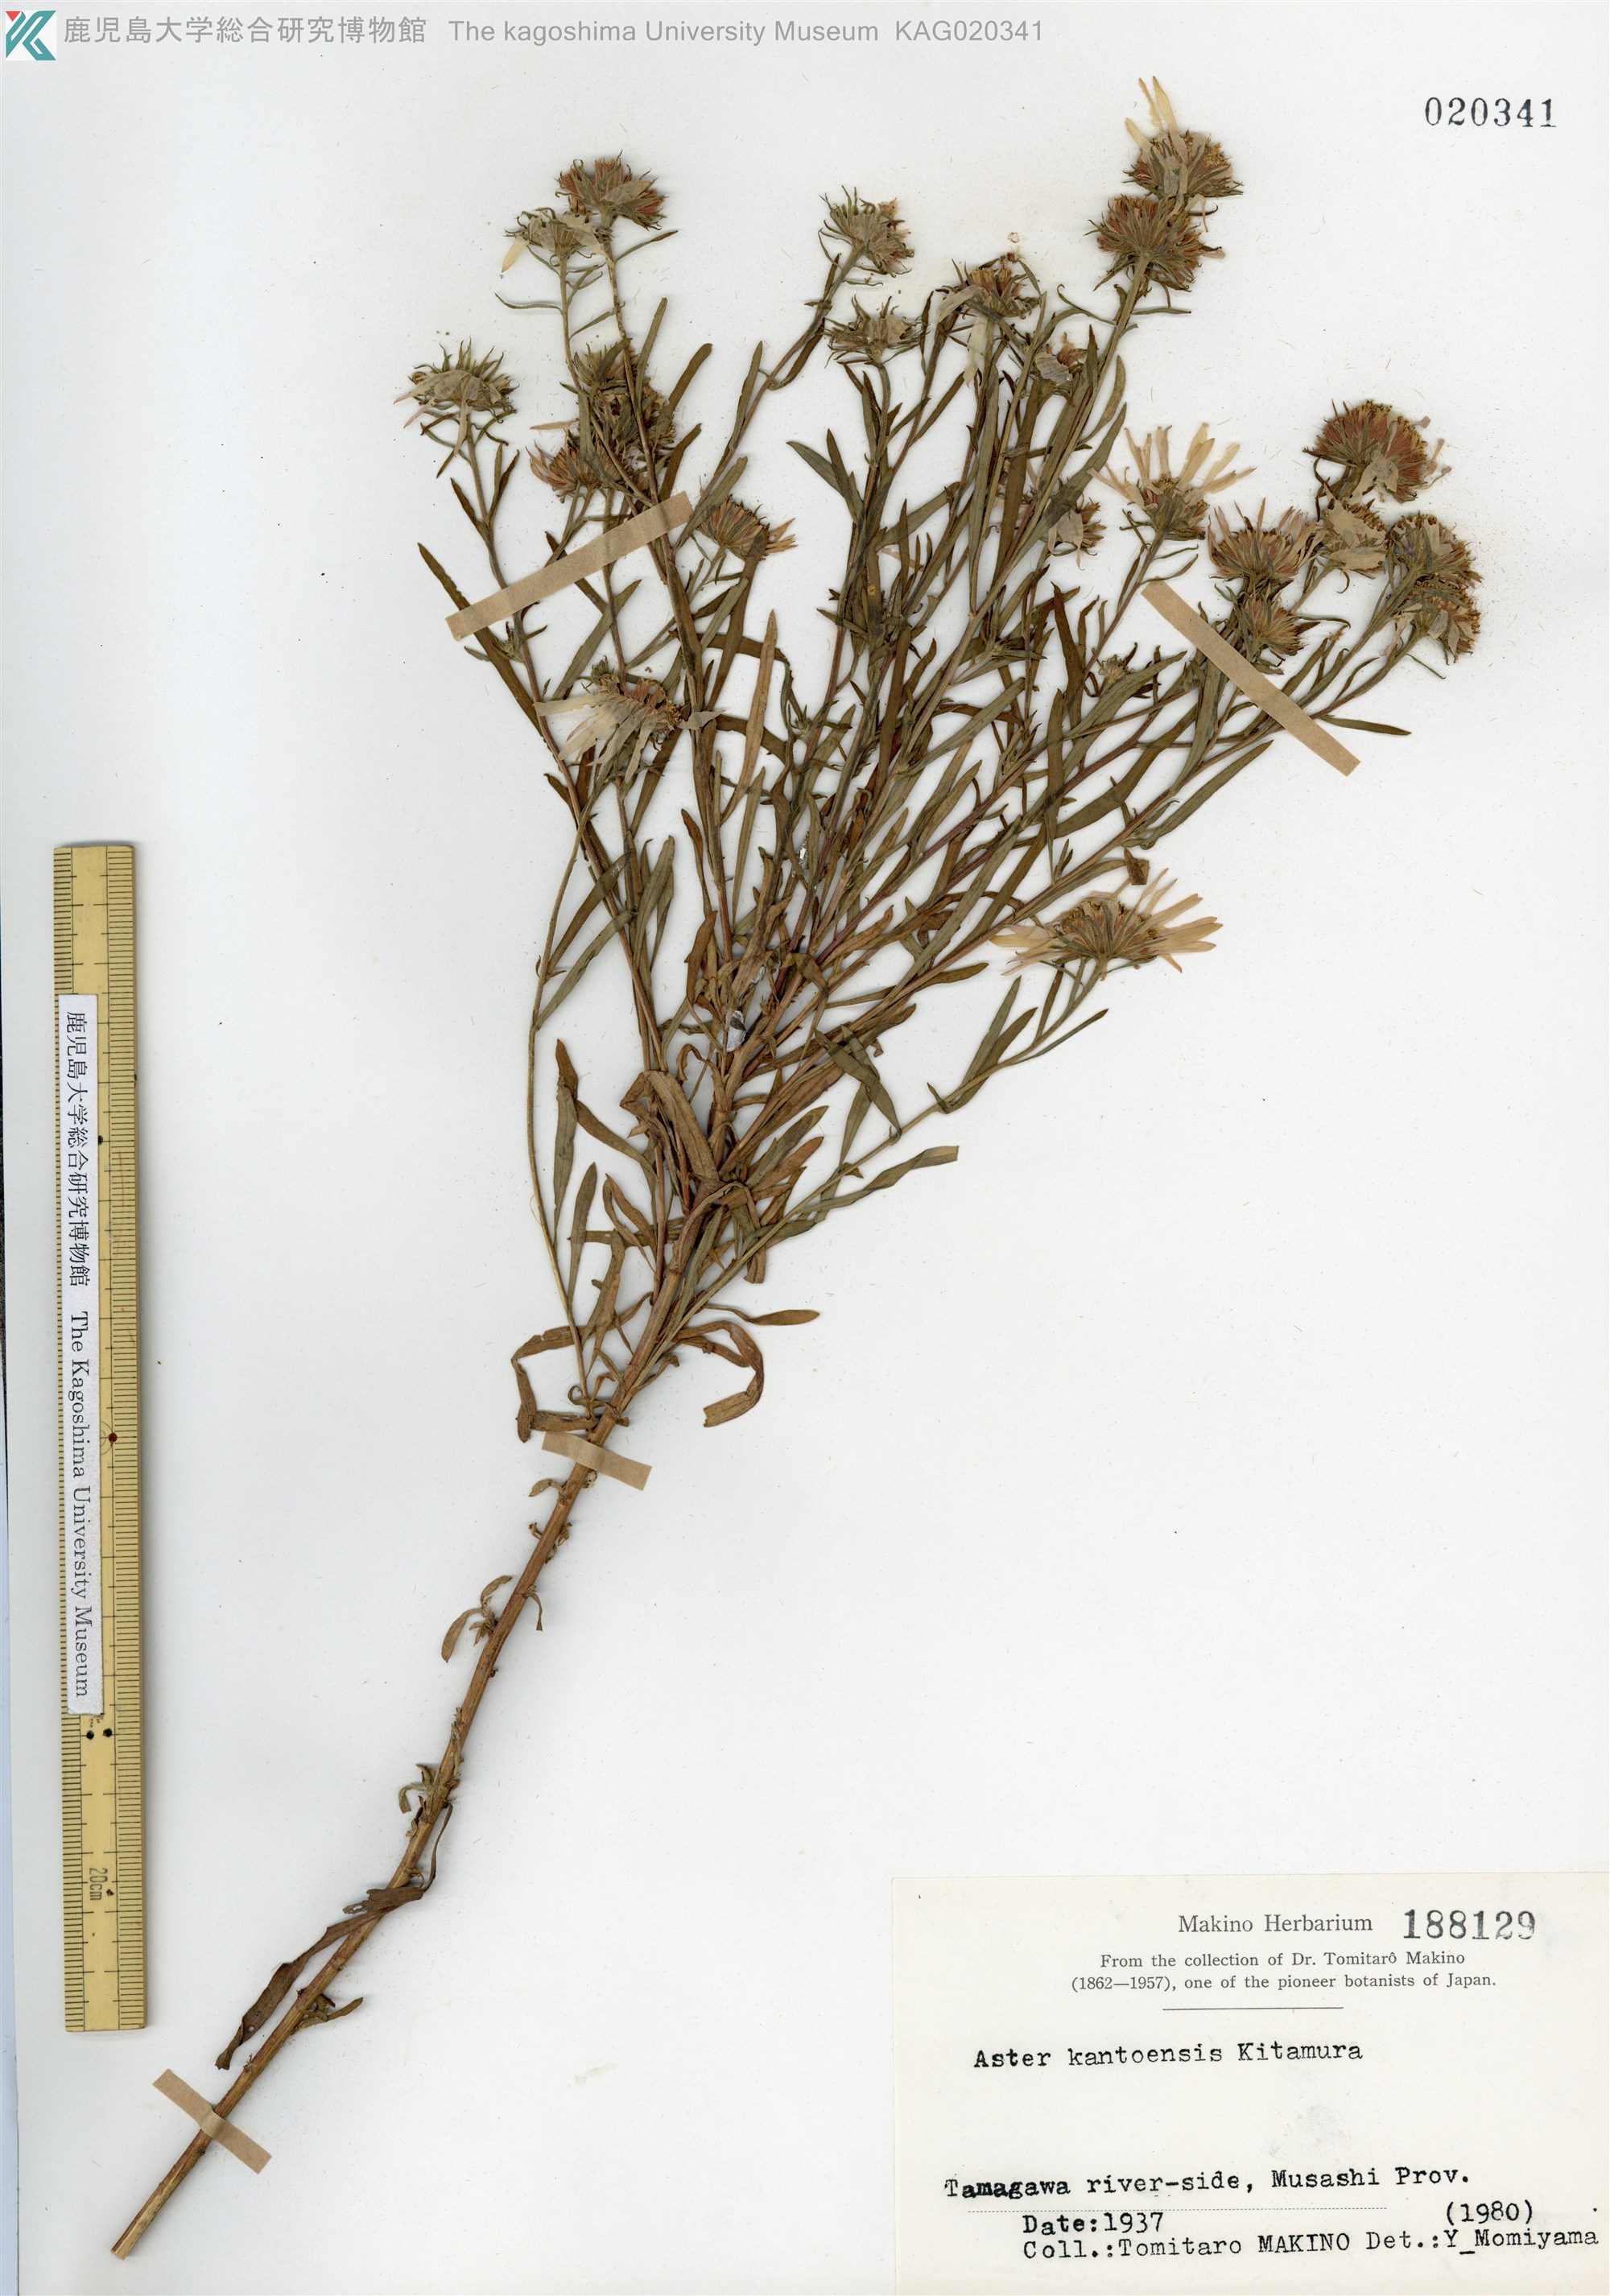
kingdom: Plantae
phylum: Tracheophyta
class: Magnoliopsida
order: Asterales
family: Asteraceae
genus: Aster
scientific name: Aster kantoensis
